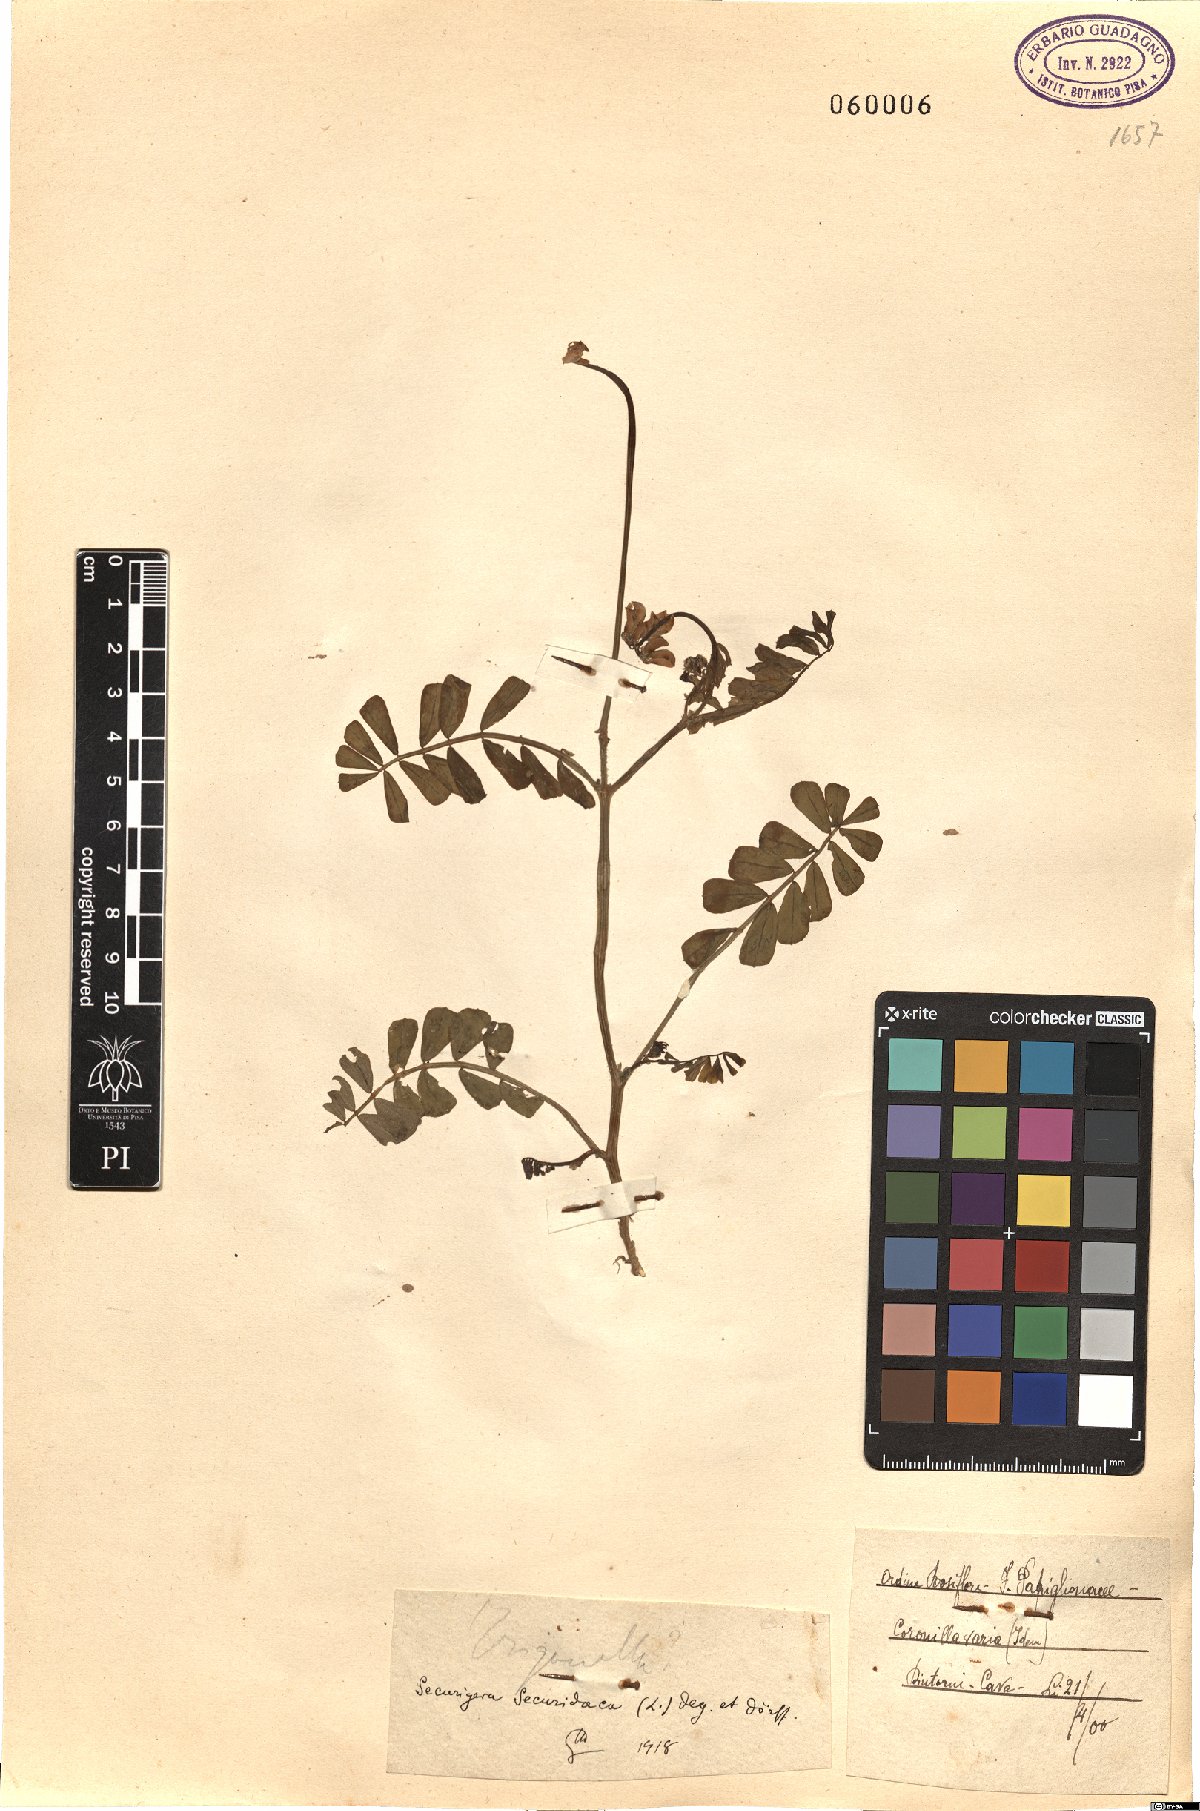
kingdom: Plantae
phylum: Tracheophyta
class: Magnoliopsida
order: Fabales
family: Fabaceae
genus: Coronilla
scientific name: Coronilla securidaca
